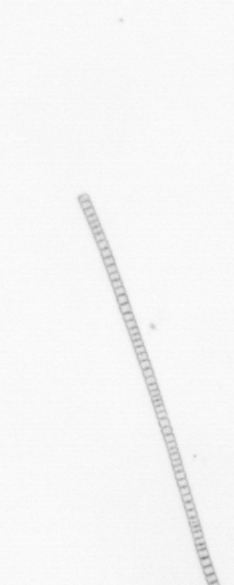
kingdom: Chromista
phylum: Ochrophyta
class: Bacillariophyceae
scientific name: Bacillariophyceae
